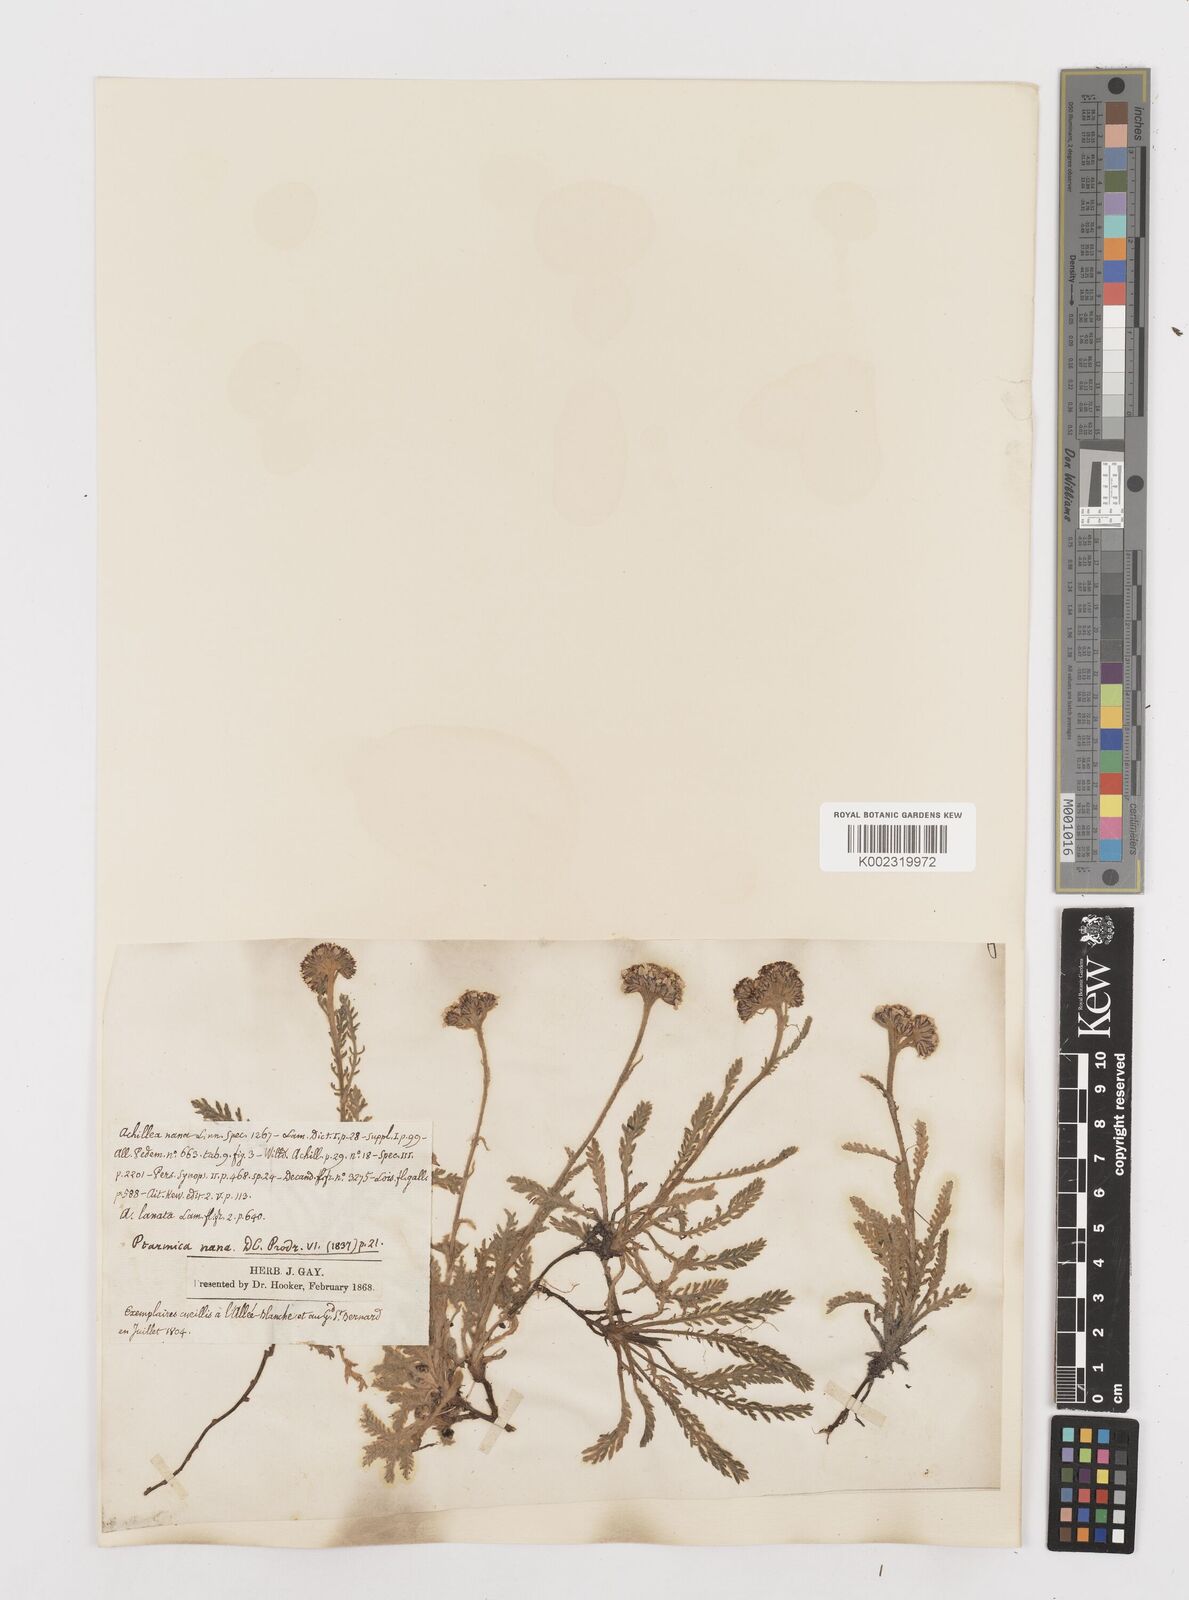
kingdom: Plantae
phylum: Tracheophyta
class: Magnoliopsida
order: Asterales
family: Asteraceae
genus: Achillea
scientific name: Achillea erba-rotta
